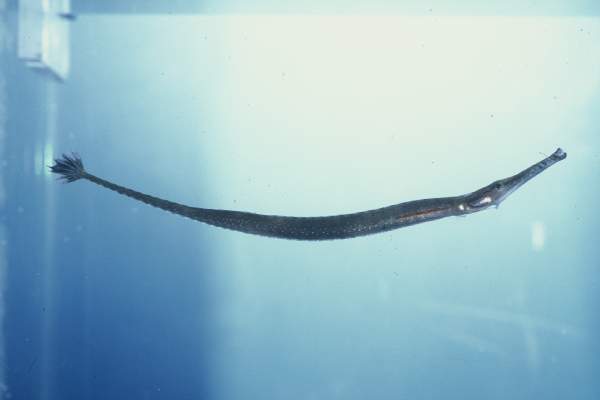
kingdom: Animalia
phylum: Chordata
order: Syngnathiformes
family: Syngnathidae
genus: Microphis
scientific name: Microphis millepunctatus
